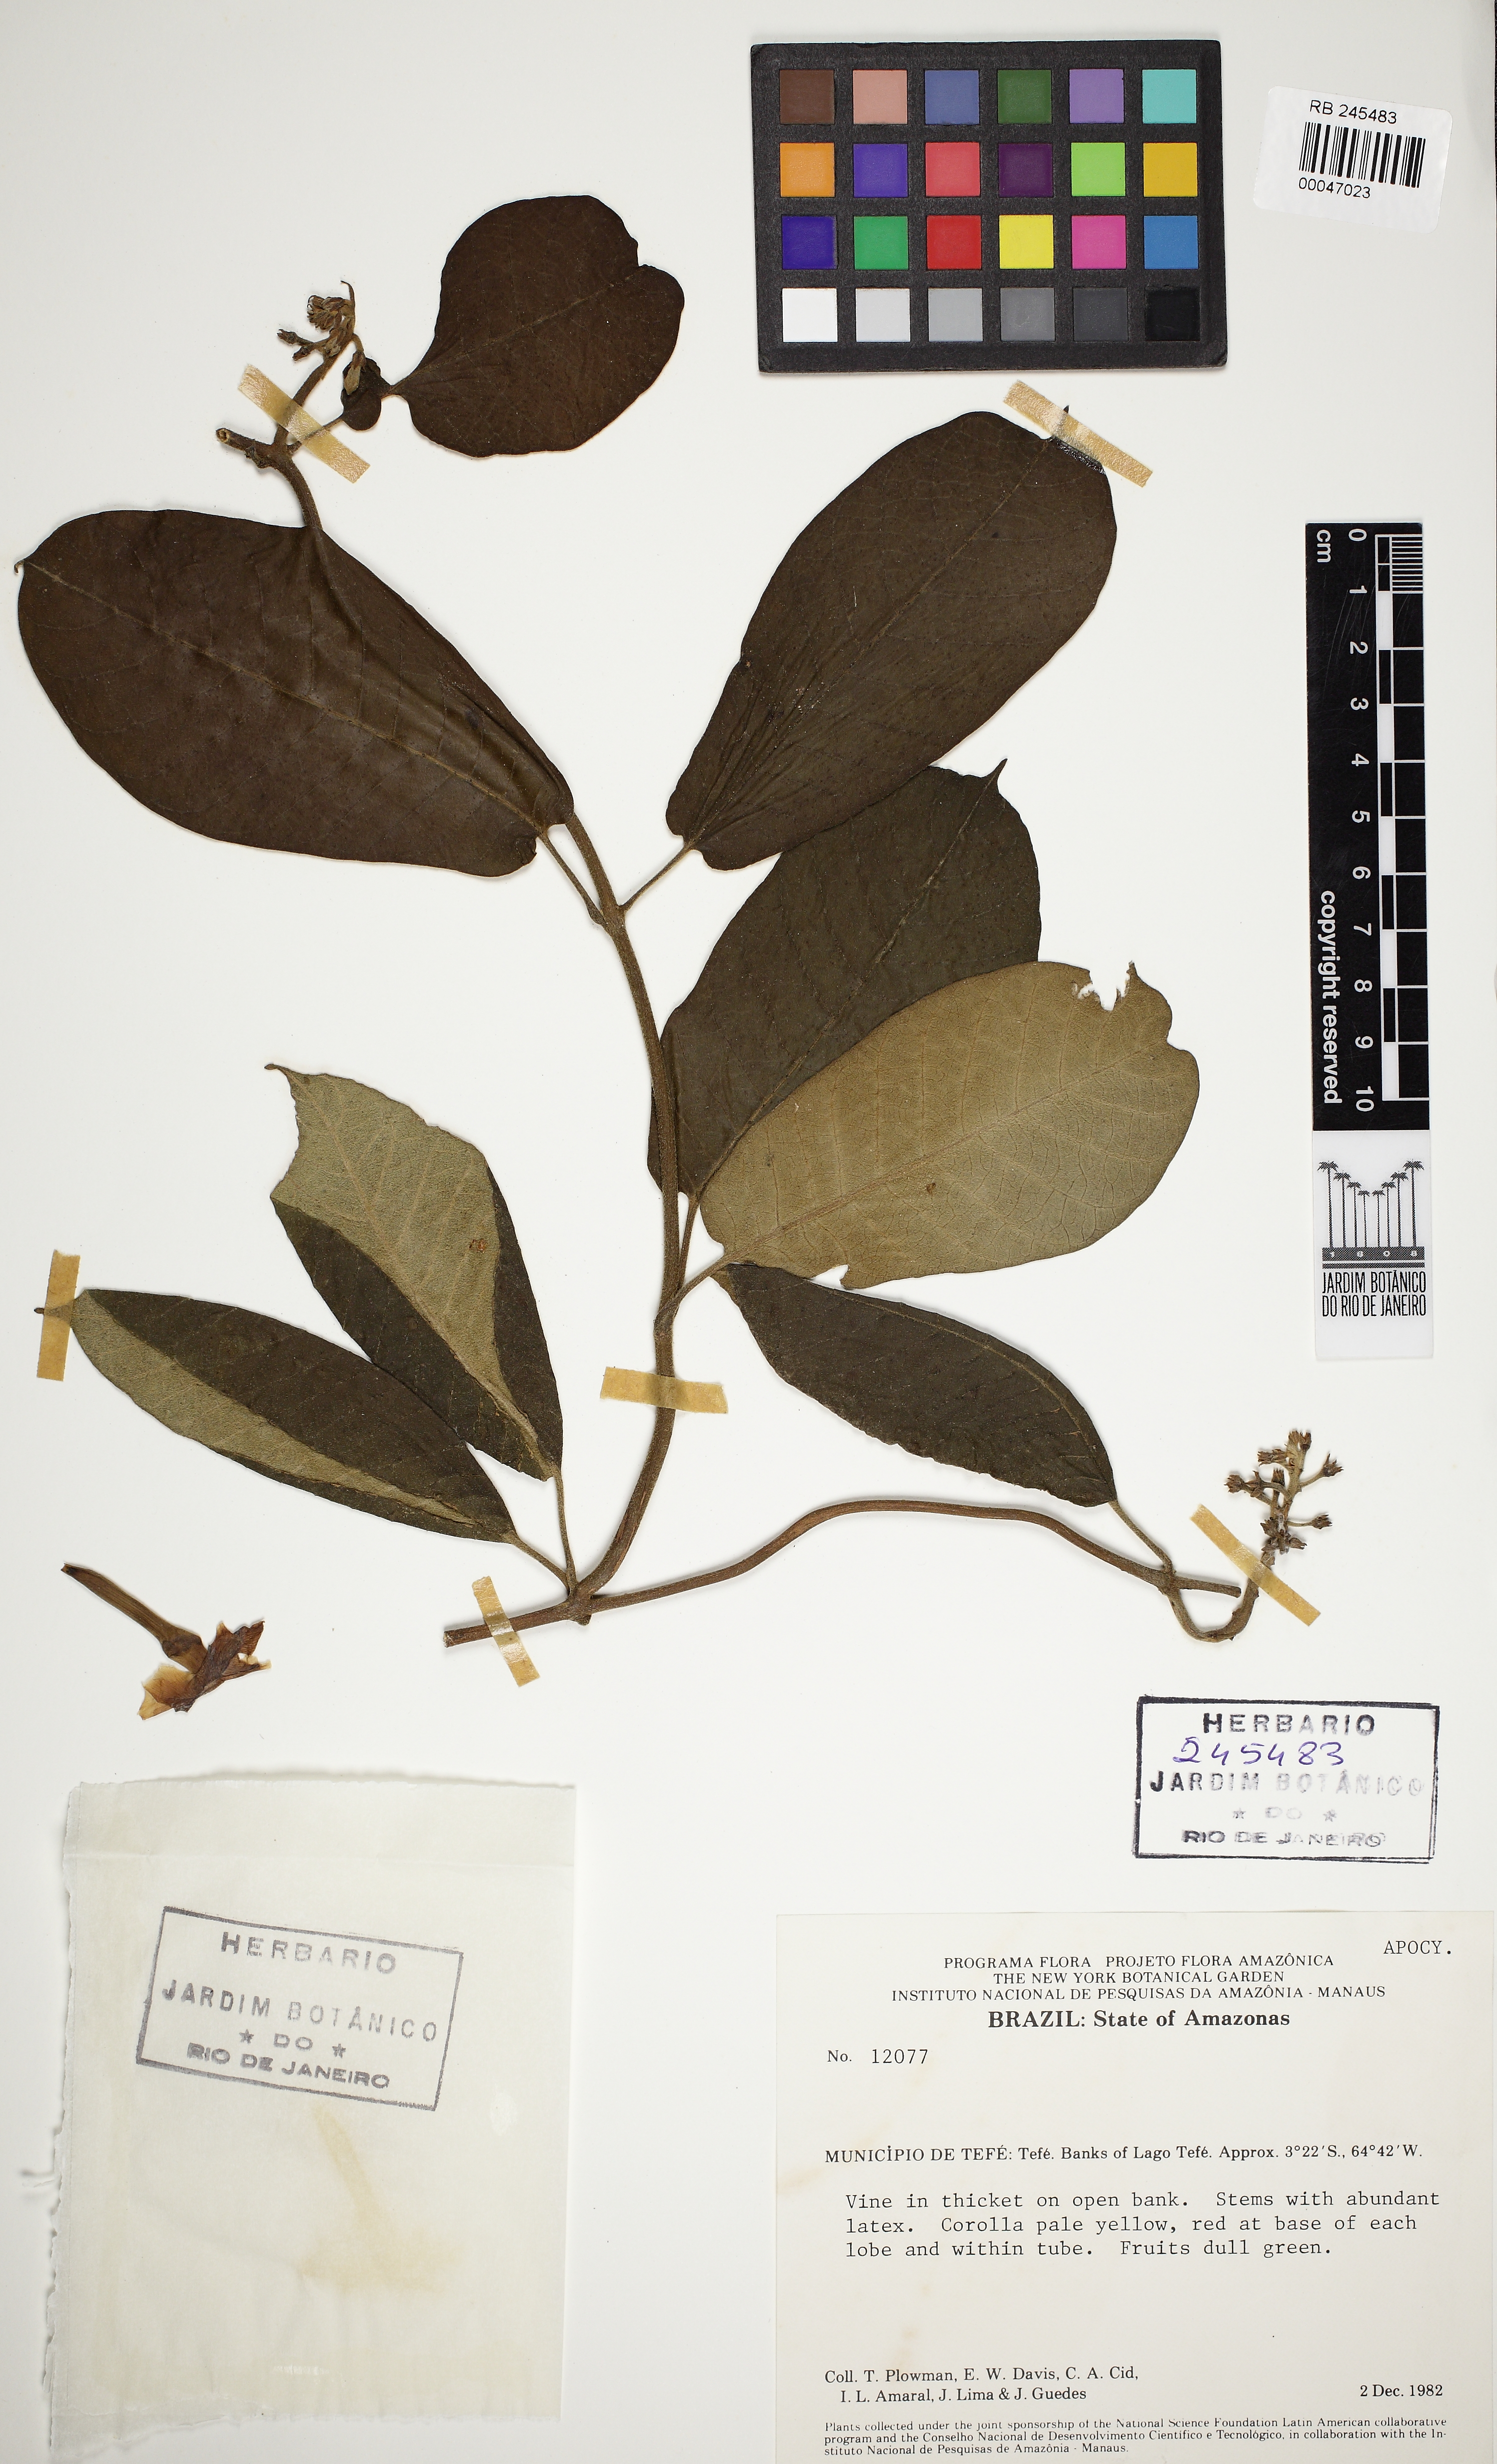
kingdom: Plantae
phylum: Tracheophyta
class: Magnoliopsida
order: Gentianales
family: Apocynaceae
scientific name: Apocynaceae
